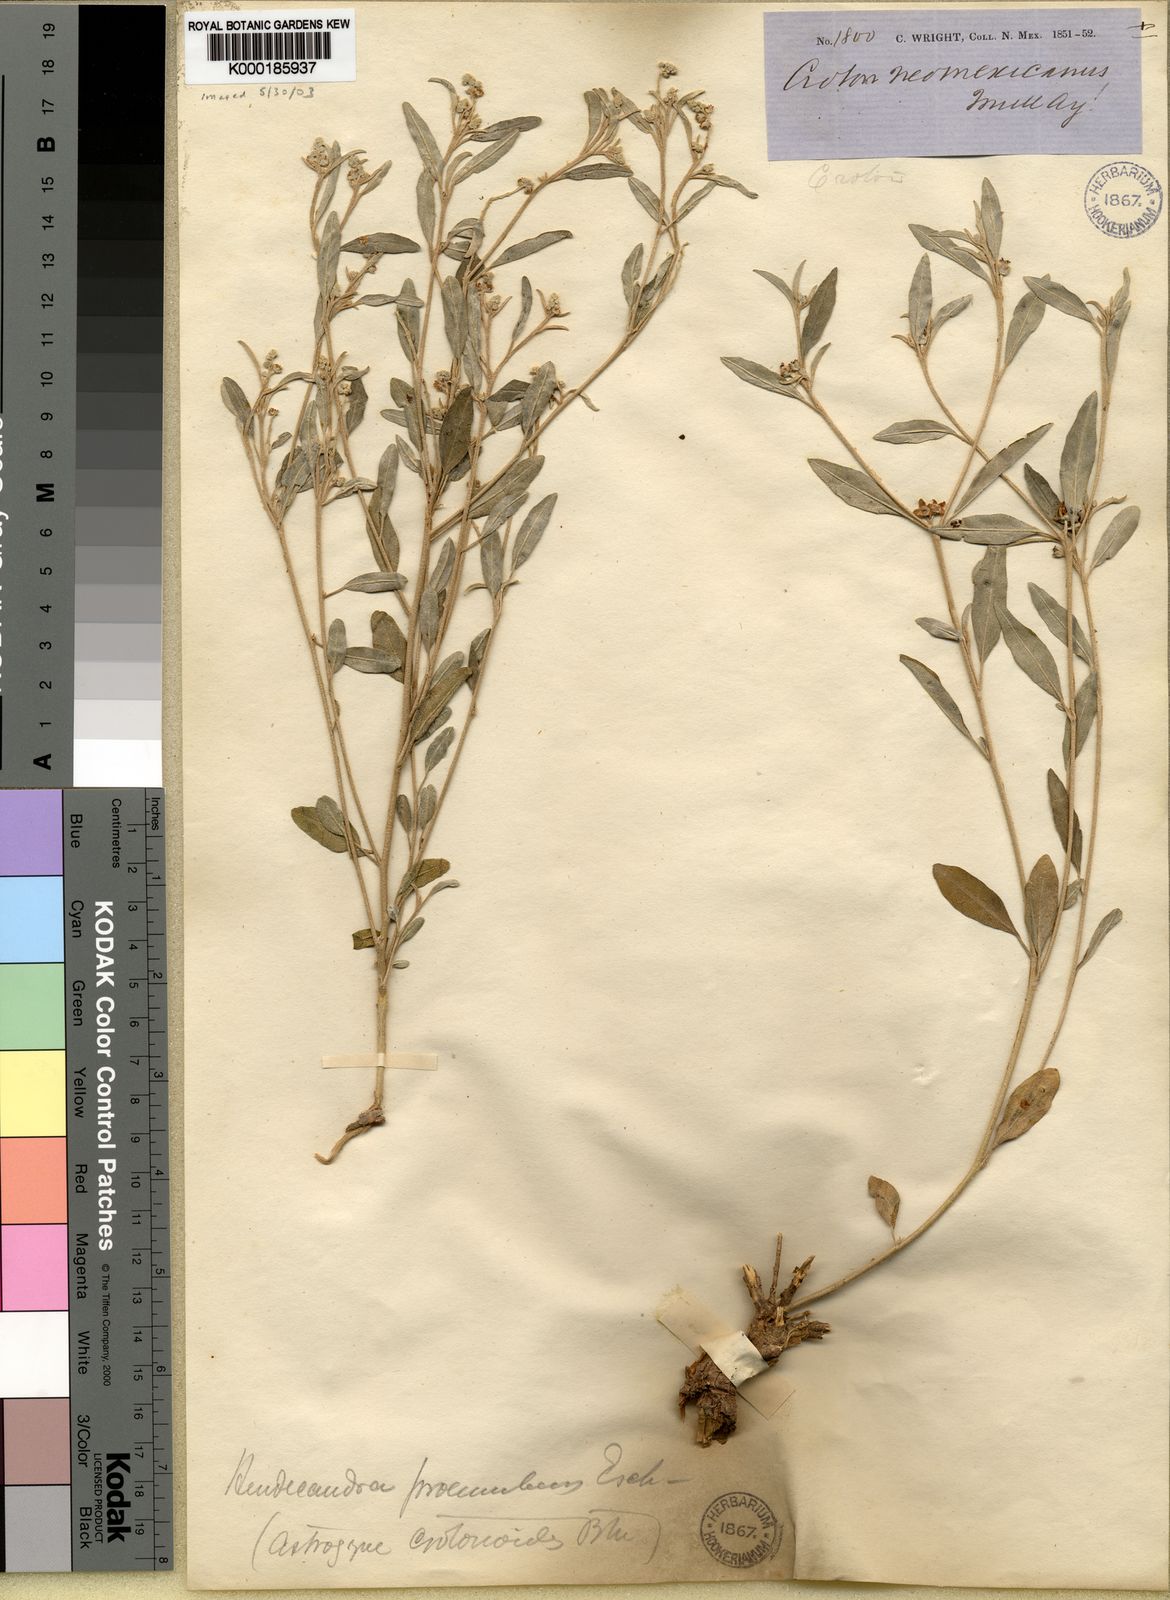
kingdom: Plantae
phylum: Tracheophyta
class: Magnoliopsida
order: Malpighiales
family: Euphorbiaceae
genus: Croton
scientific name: Croton dioicus
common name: Grassland croton
